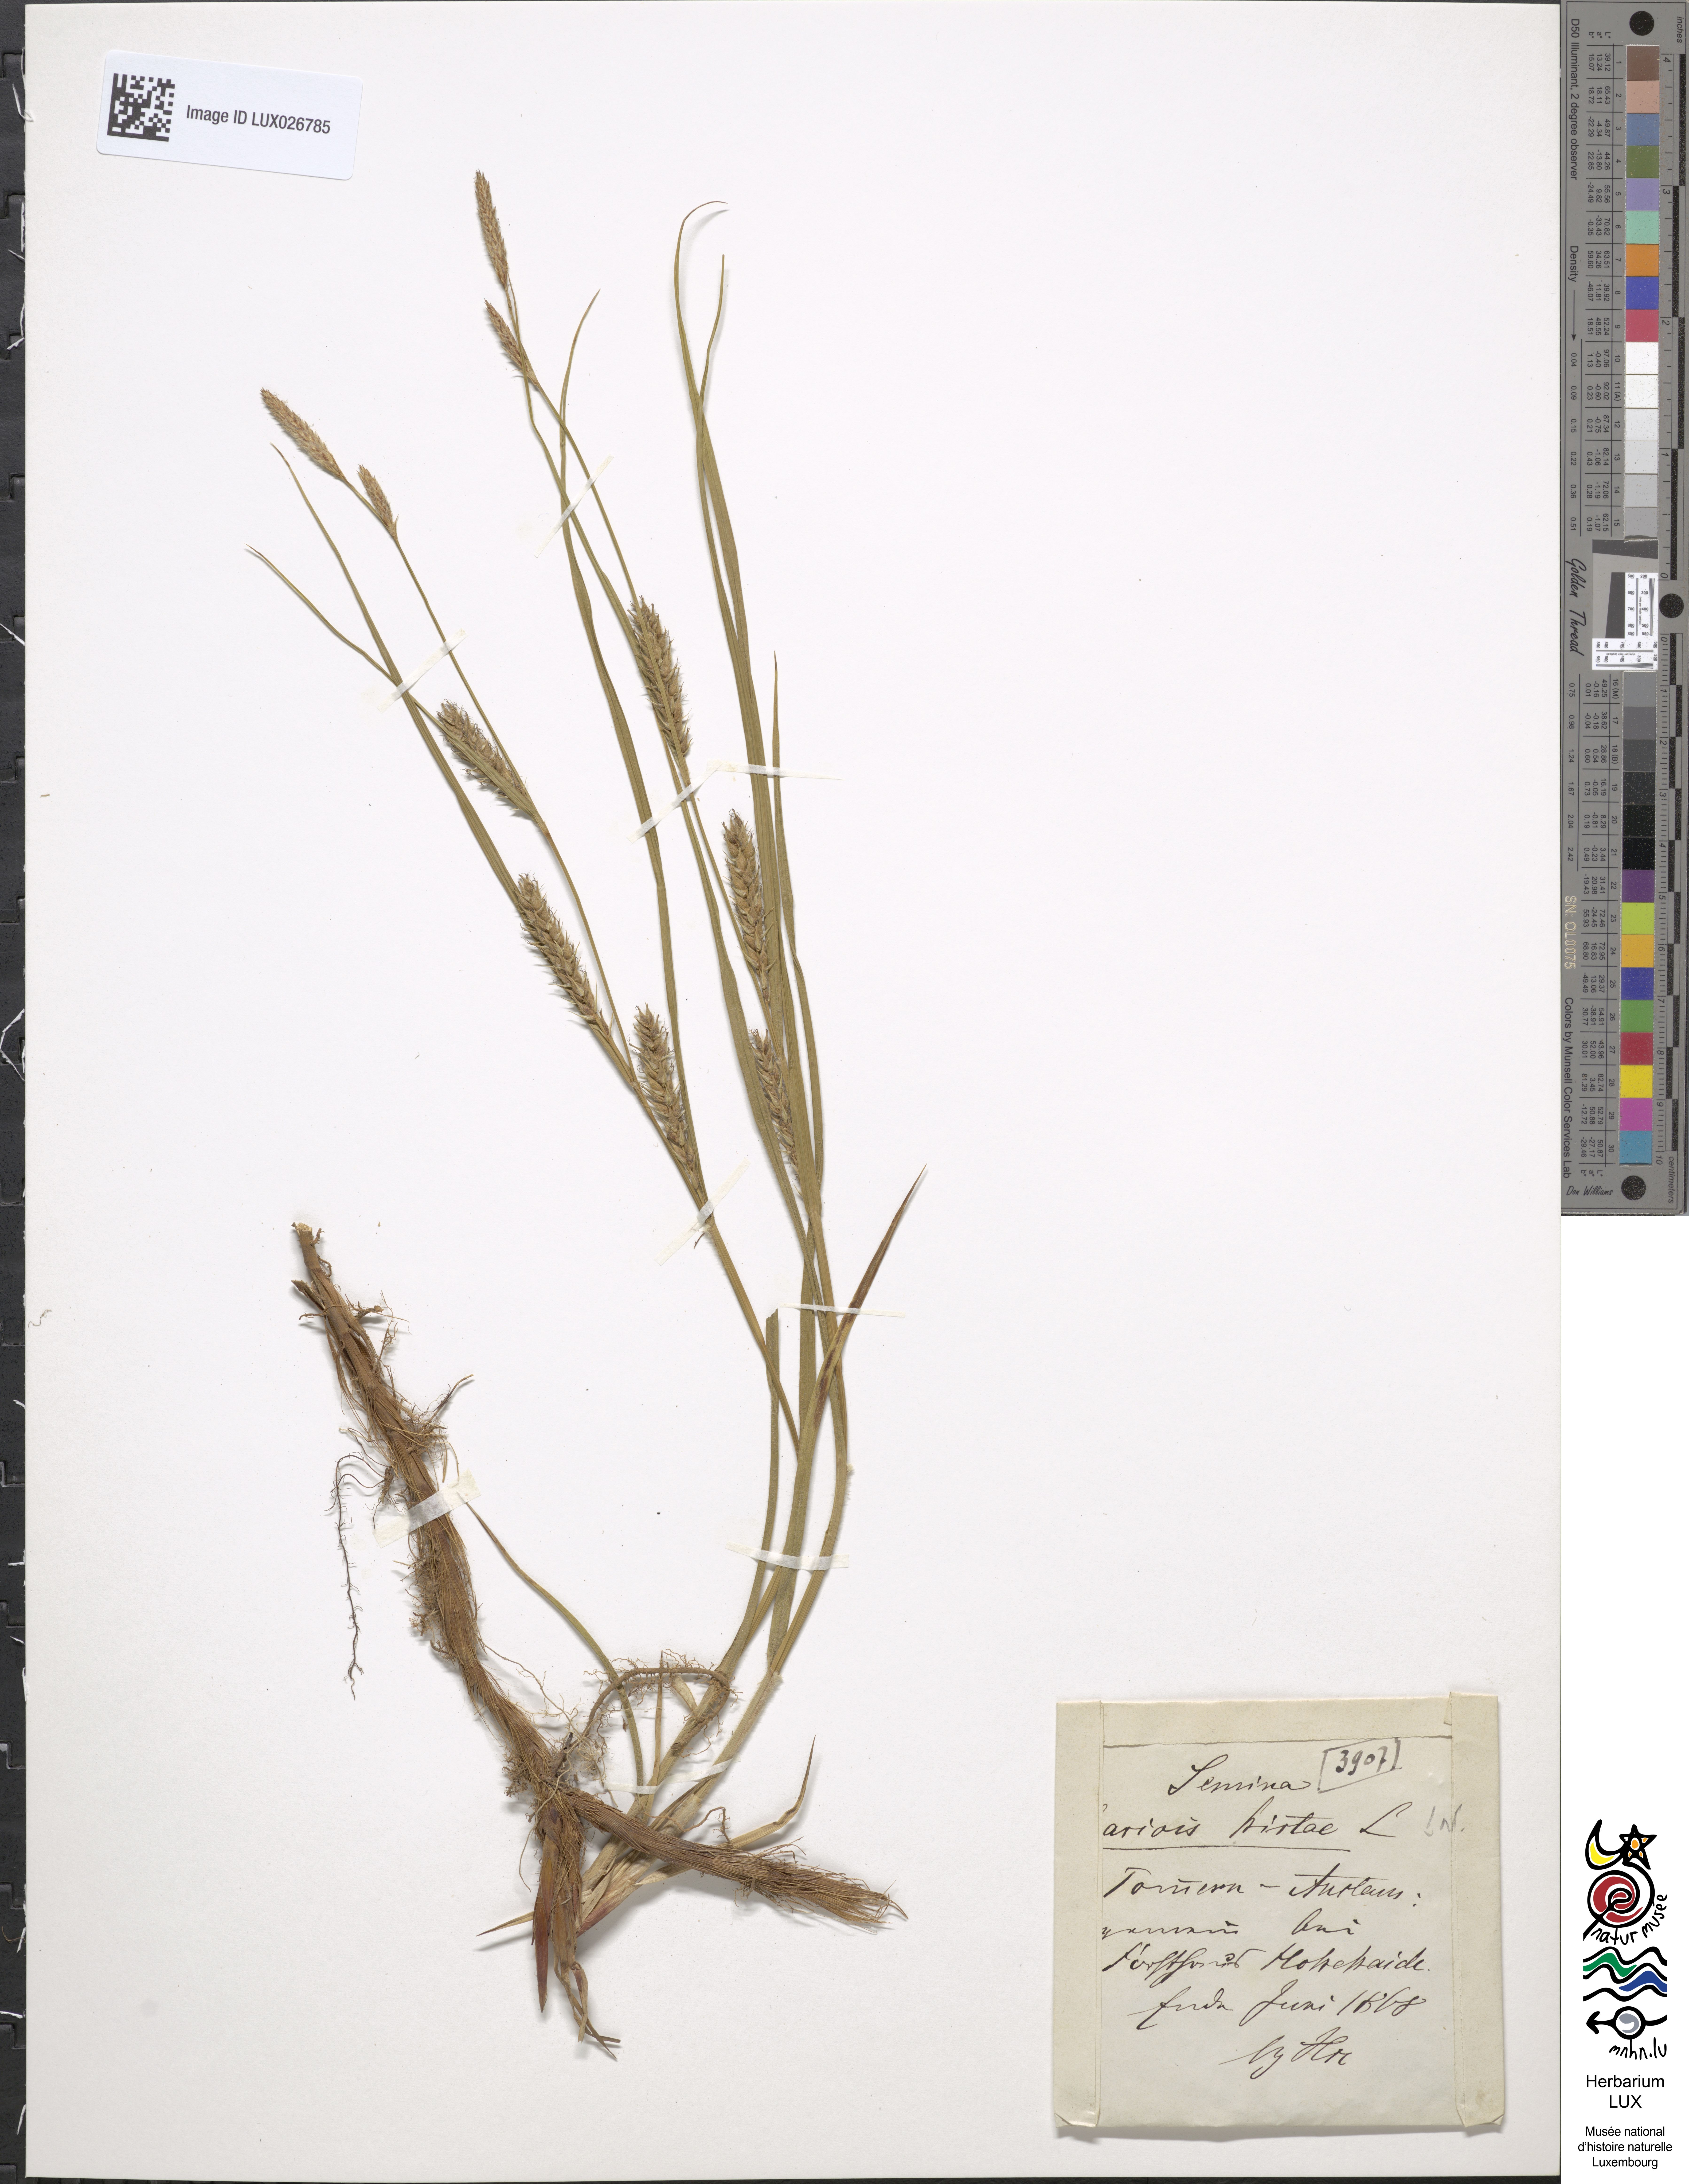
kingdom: Plantae
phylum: Tracheophyta
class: Liliopsida
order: Poales
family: Cyperaceae
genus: Carex
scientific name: Carex hirta
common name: Hairy sedge
